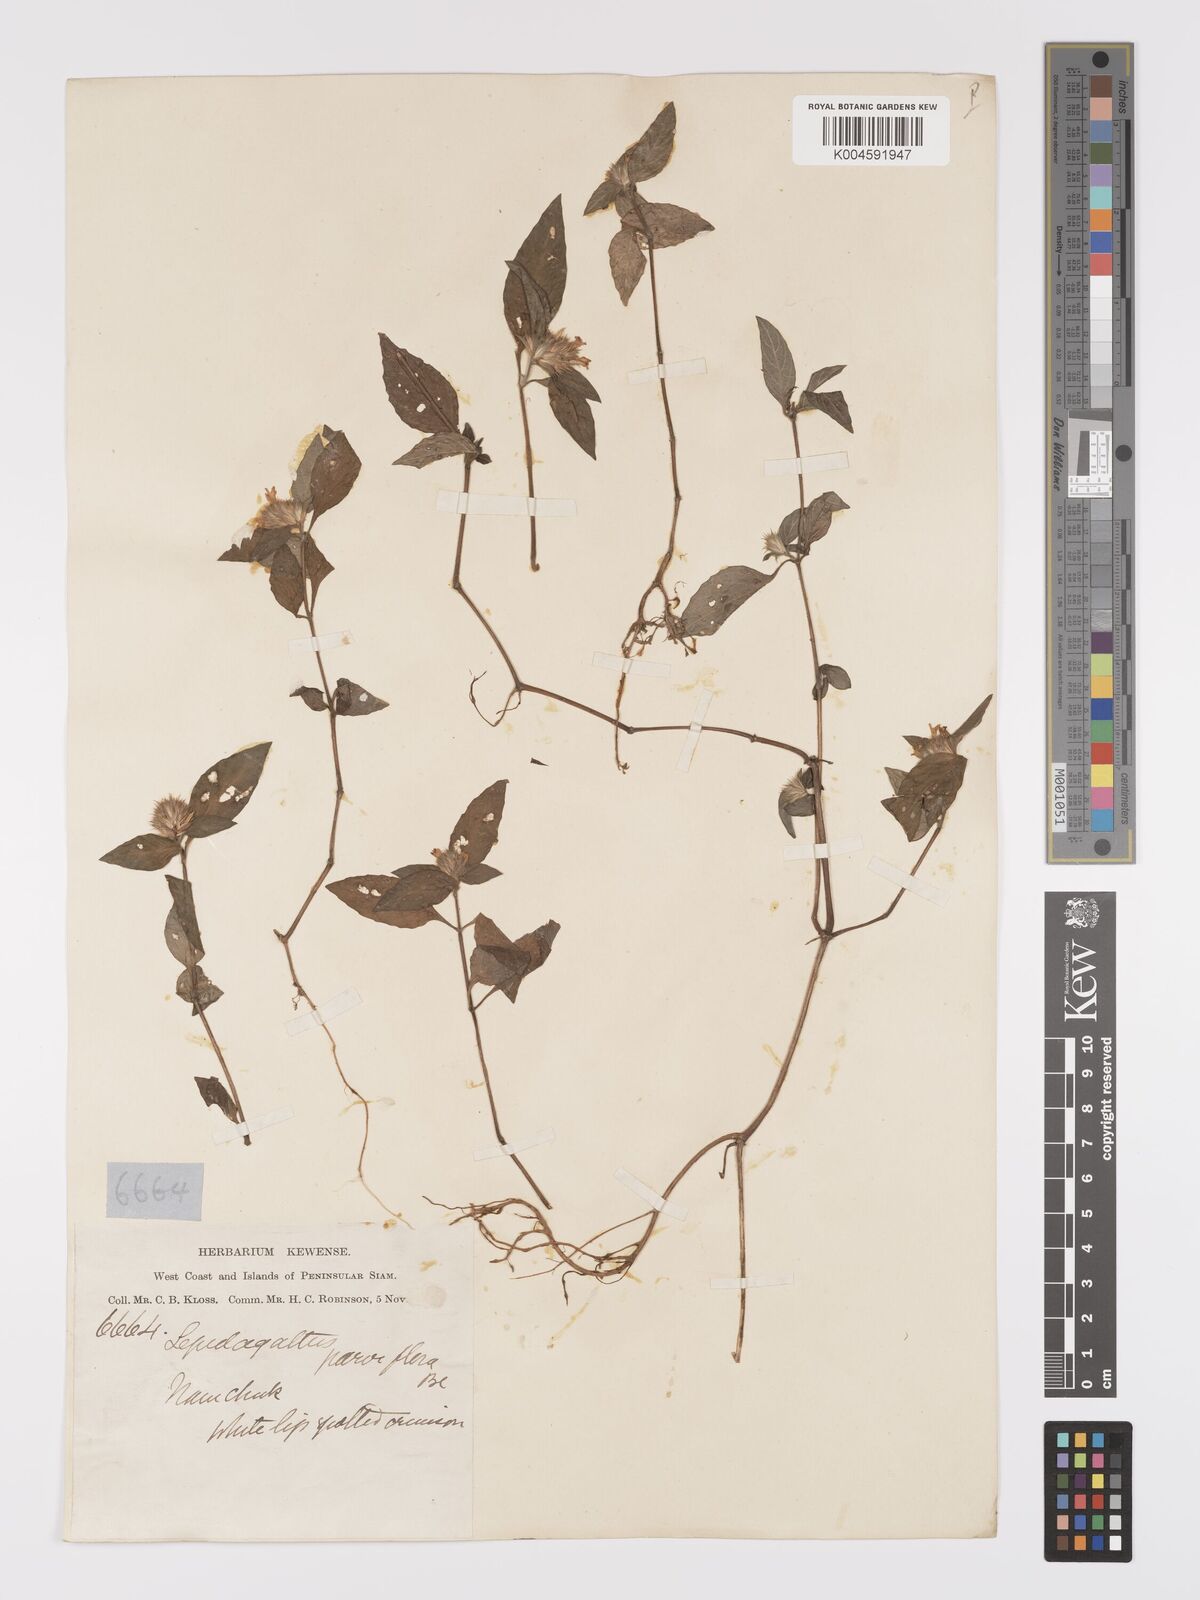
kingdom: Plantae
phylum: Tracheophyta
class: Magnoliopsida
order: Lamiales
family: Acanthaceae
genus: Lepidagathis
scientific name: Lepidagathis incurva
